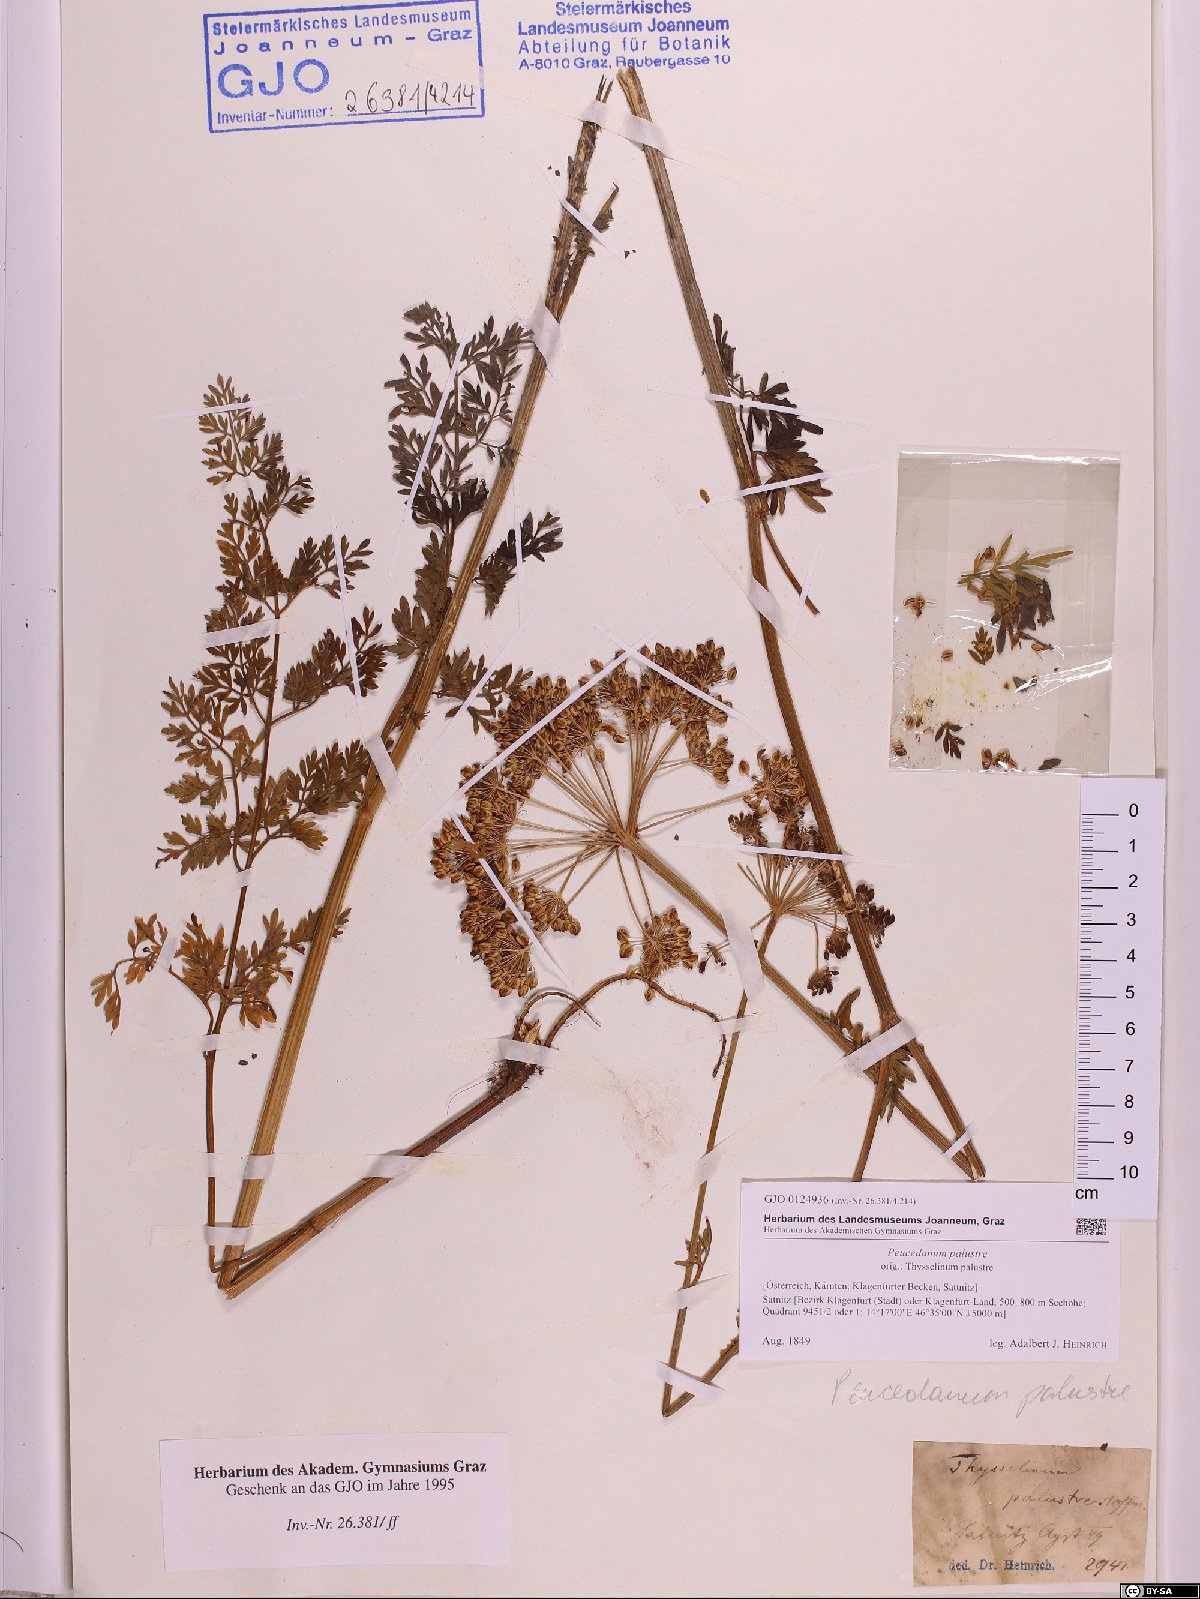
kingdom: Plantae
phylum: Tracheophyta
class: Magnoliopsida
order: Apiales
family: Apiaceae
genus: Thysselinum
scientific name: Thysselinum palustre
